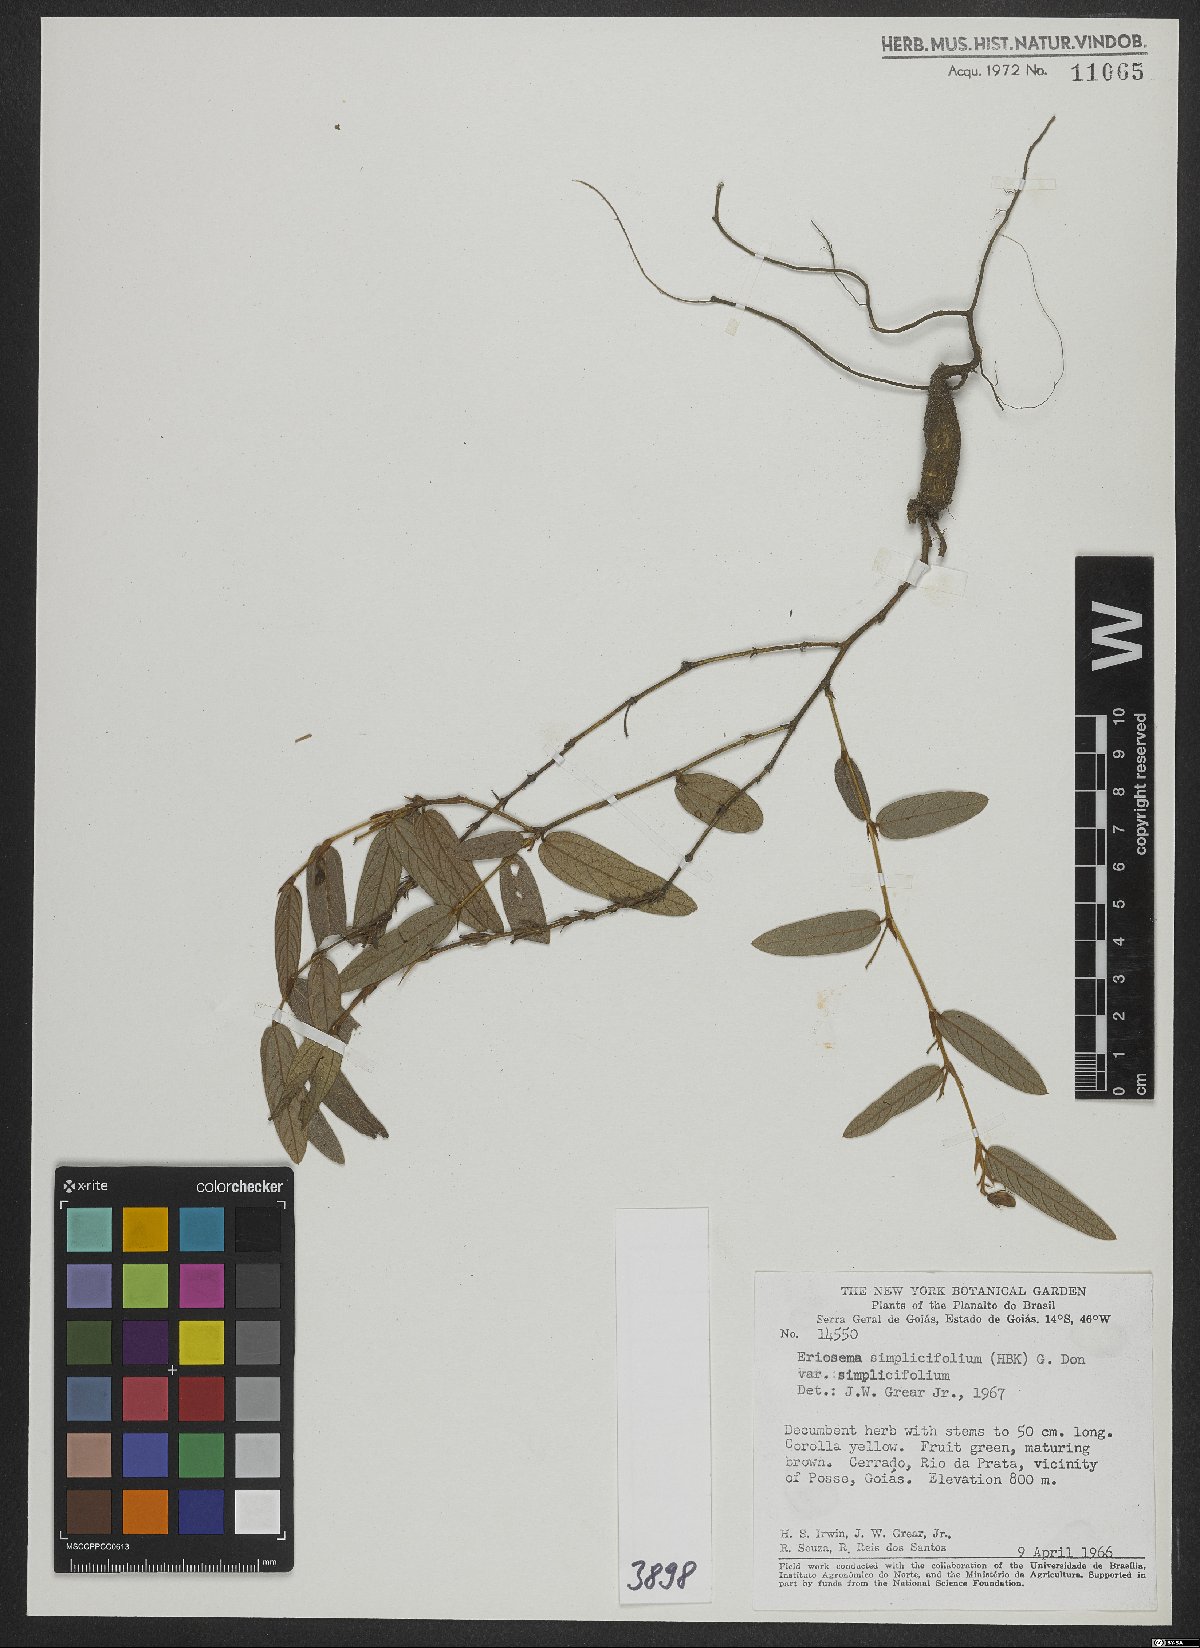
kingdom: Plantae
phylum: Tracheophyta
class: Magnoliopsida
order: Fabales
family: Fabaceae
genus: Eriosema
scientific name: Eriosema simplicifolium
